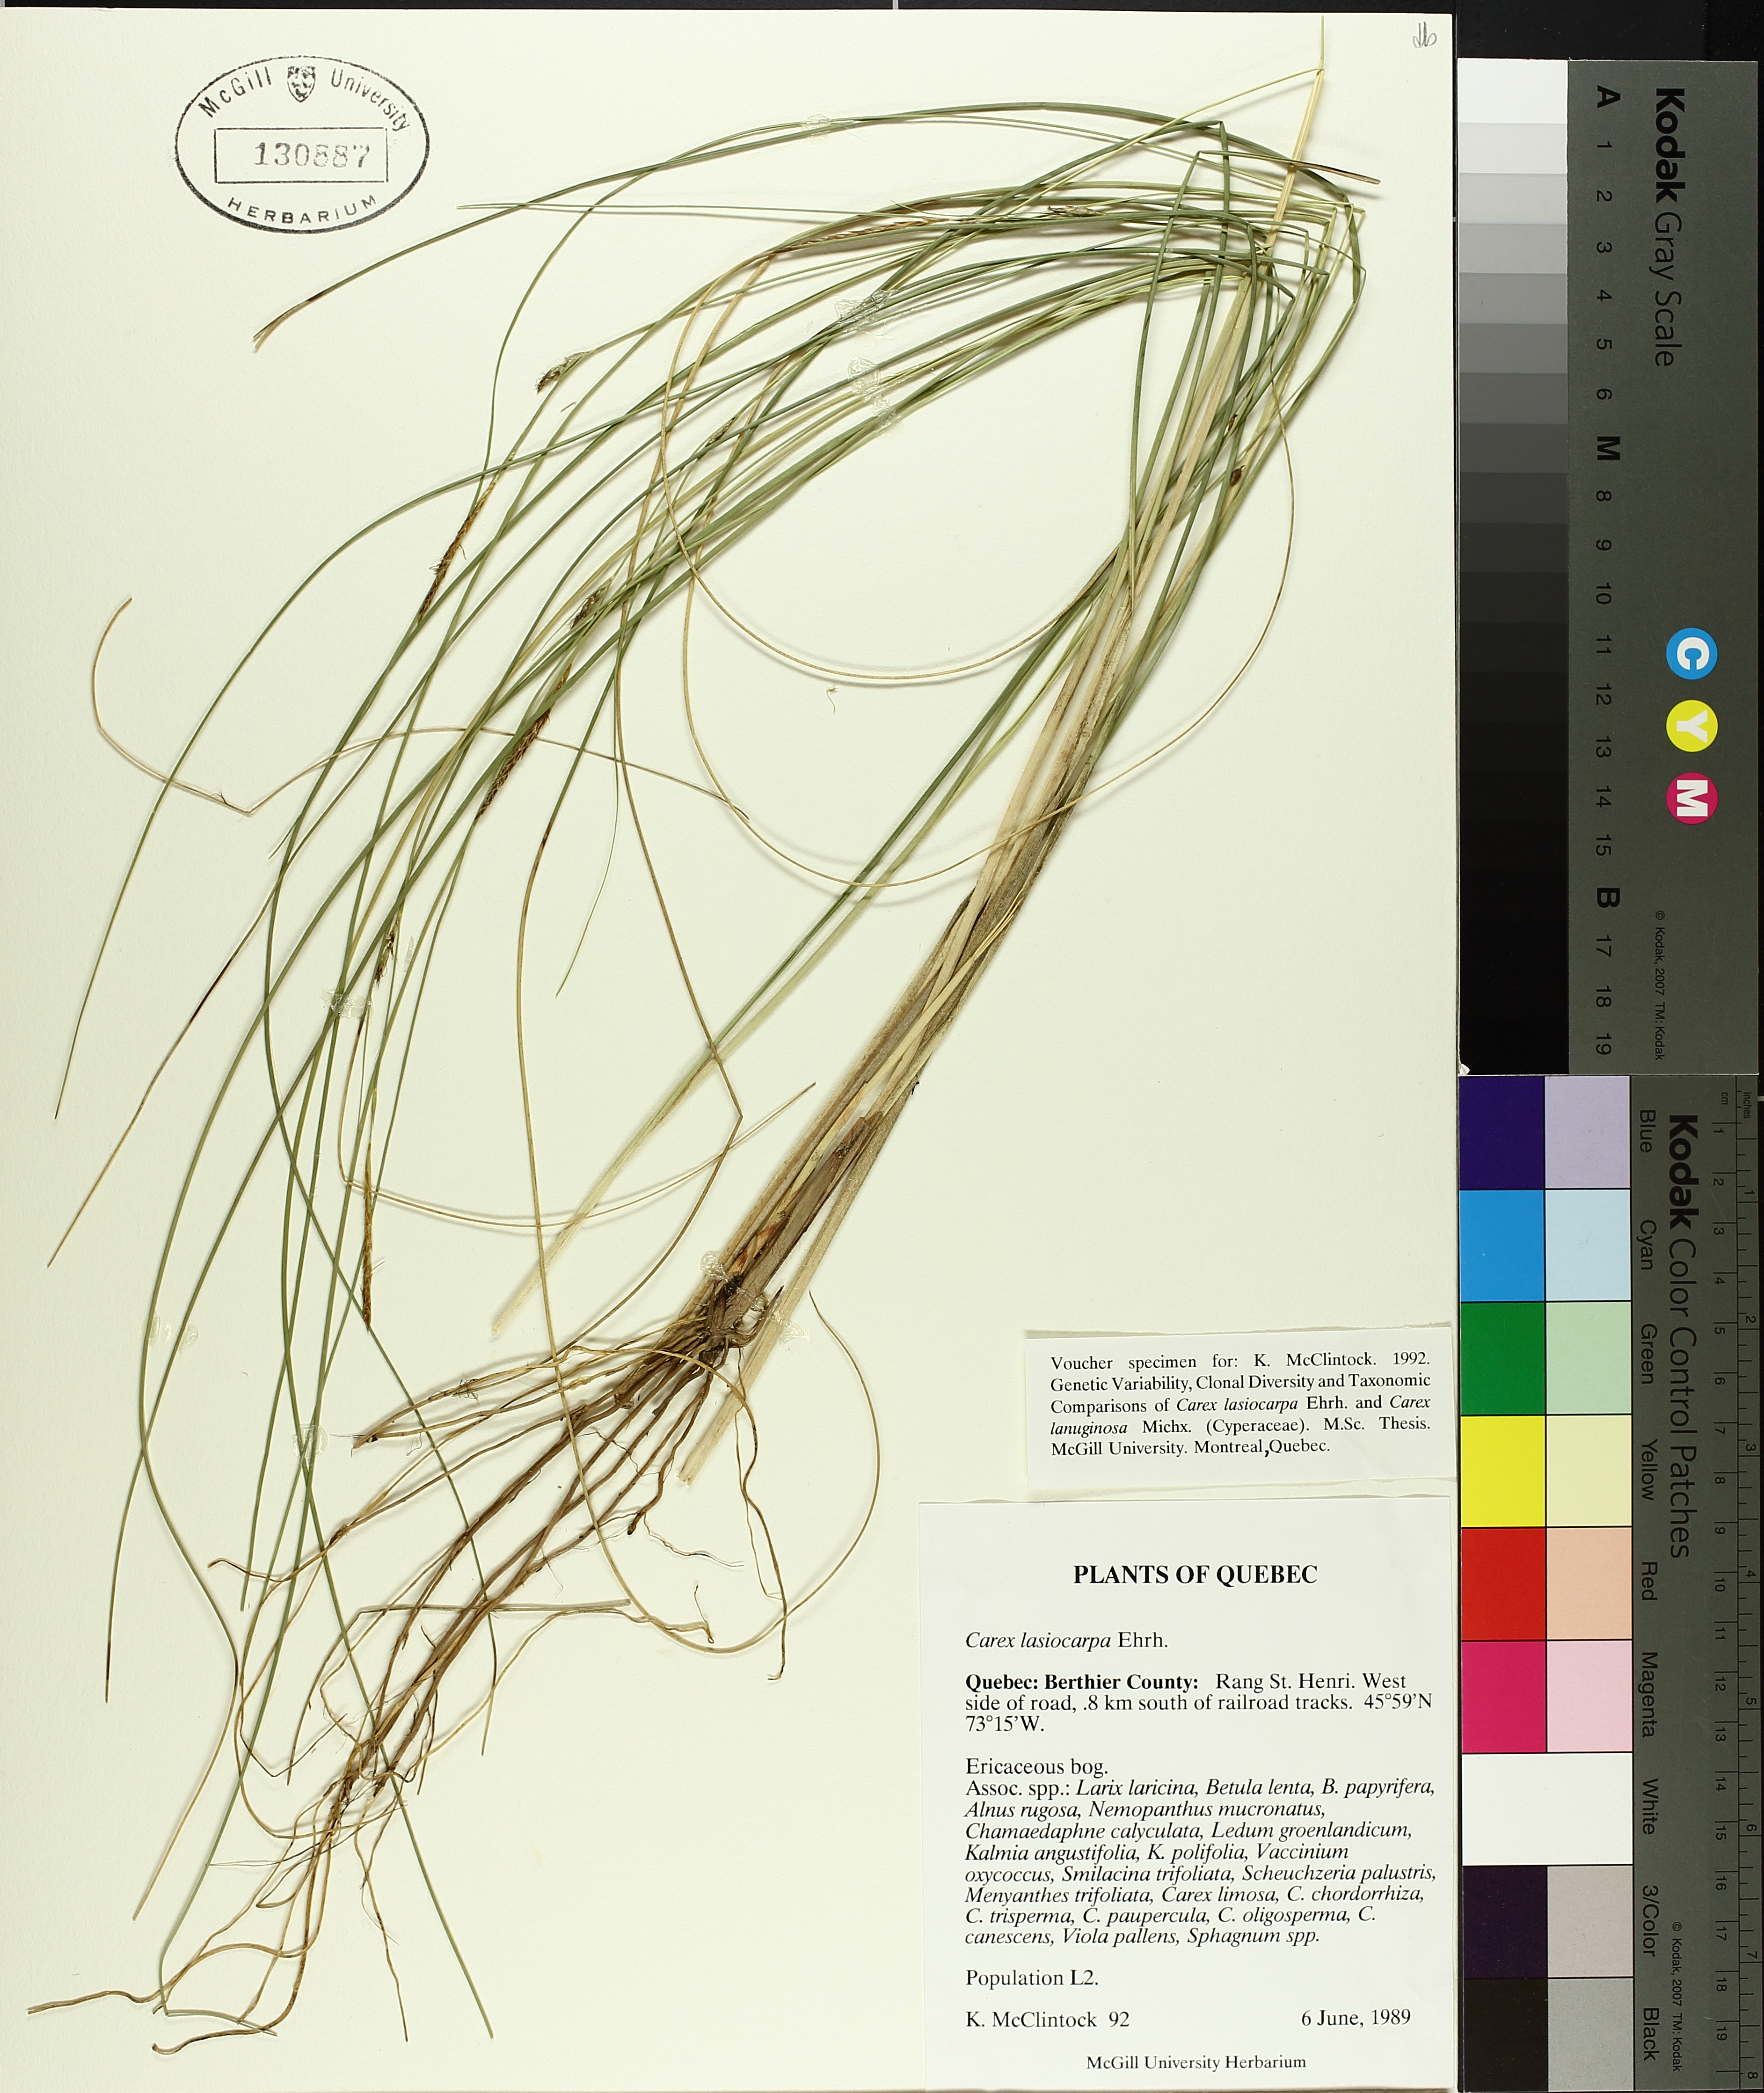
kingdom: Plantae
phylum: Tracheophyta
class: Liliopsida
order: Poales
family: Cyperaceae
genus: Carex
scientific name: Carex lasiocarpa
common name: Slender sedge
